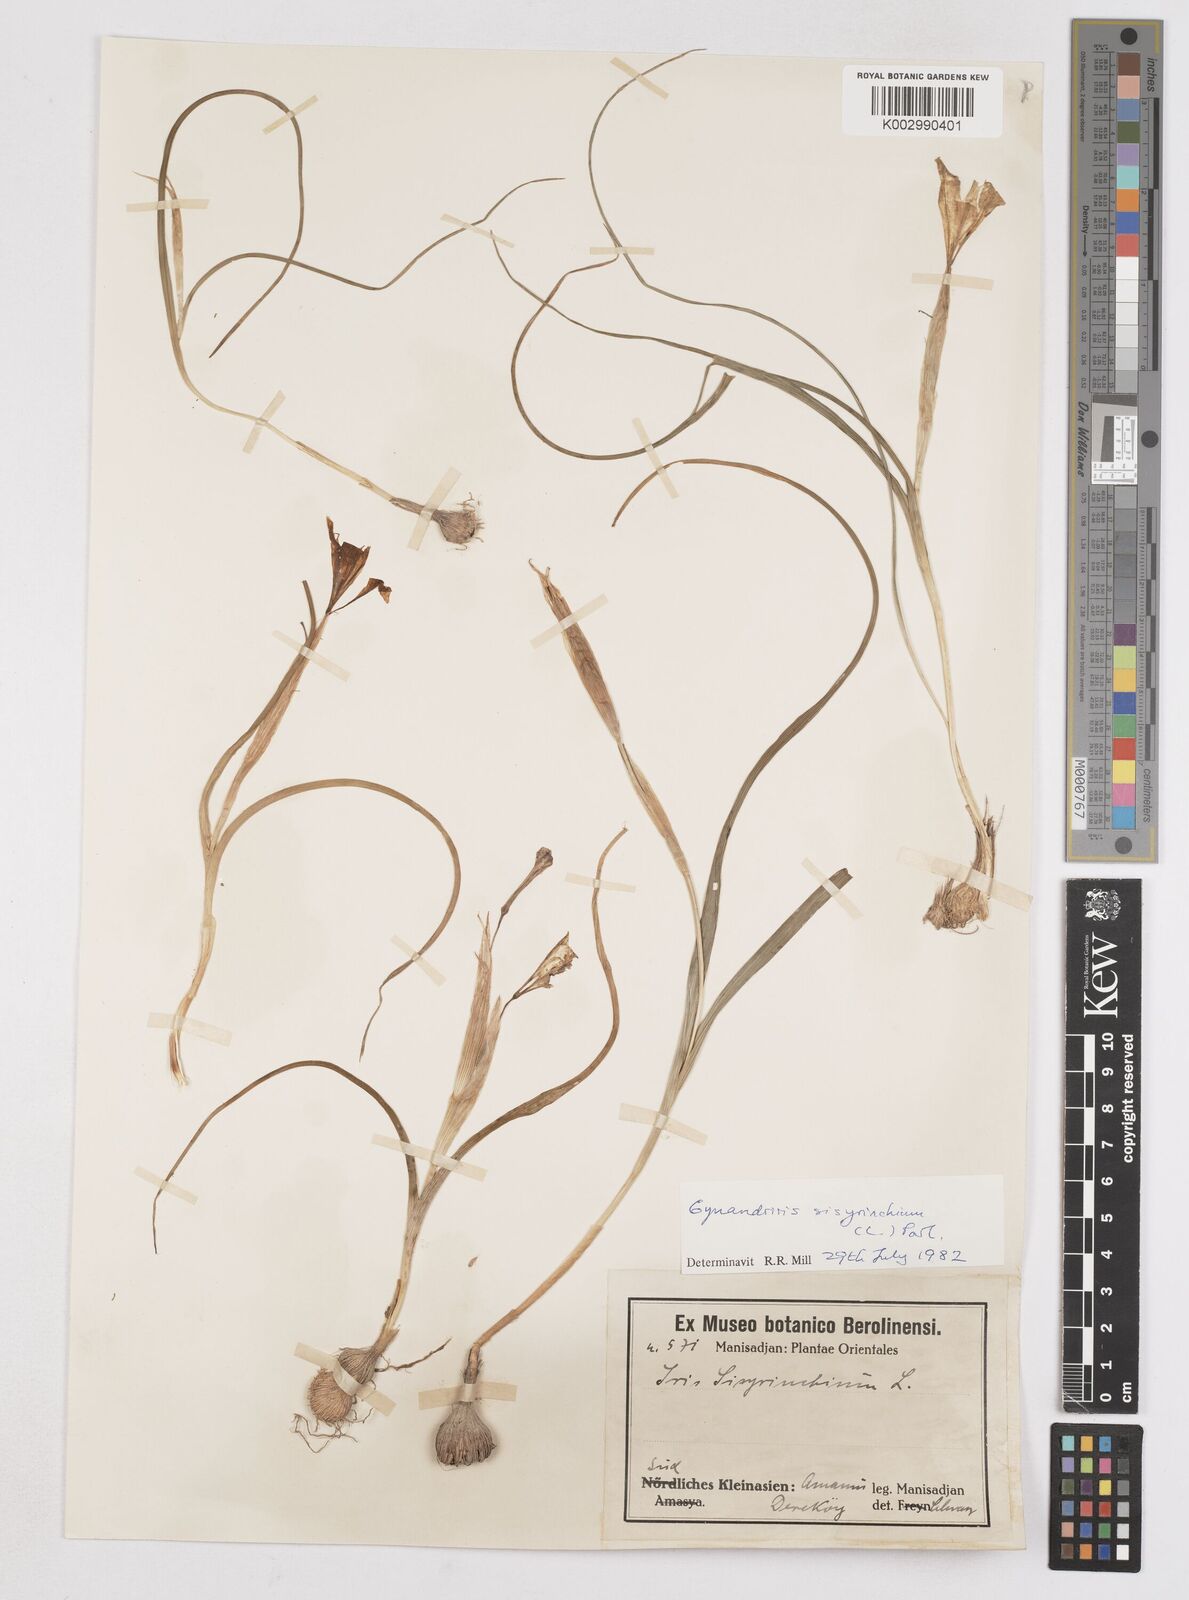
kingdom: Plantae
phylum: Tracheophyta
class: Liliopsida
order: Asparagales
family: Iridaceae
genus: Moraea
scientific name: Moraea sisyrinchium
